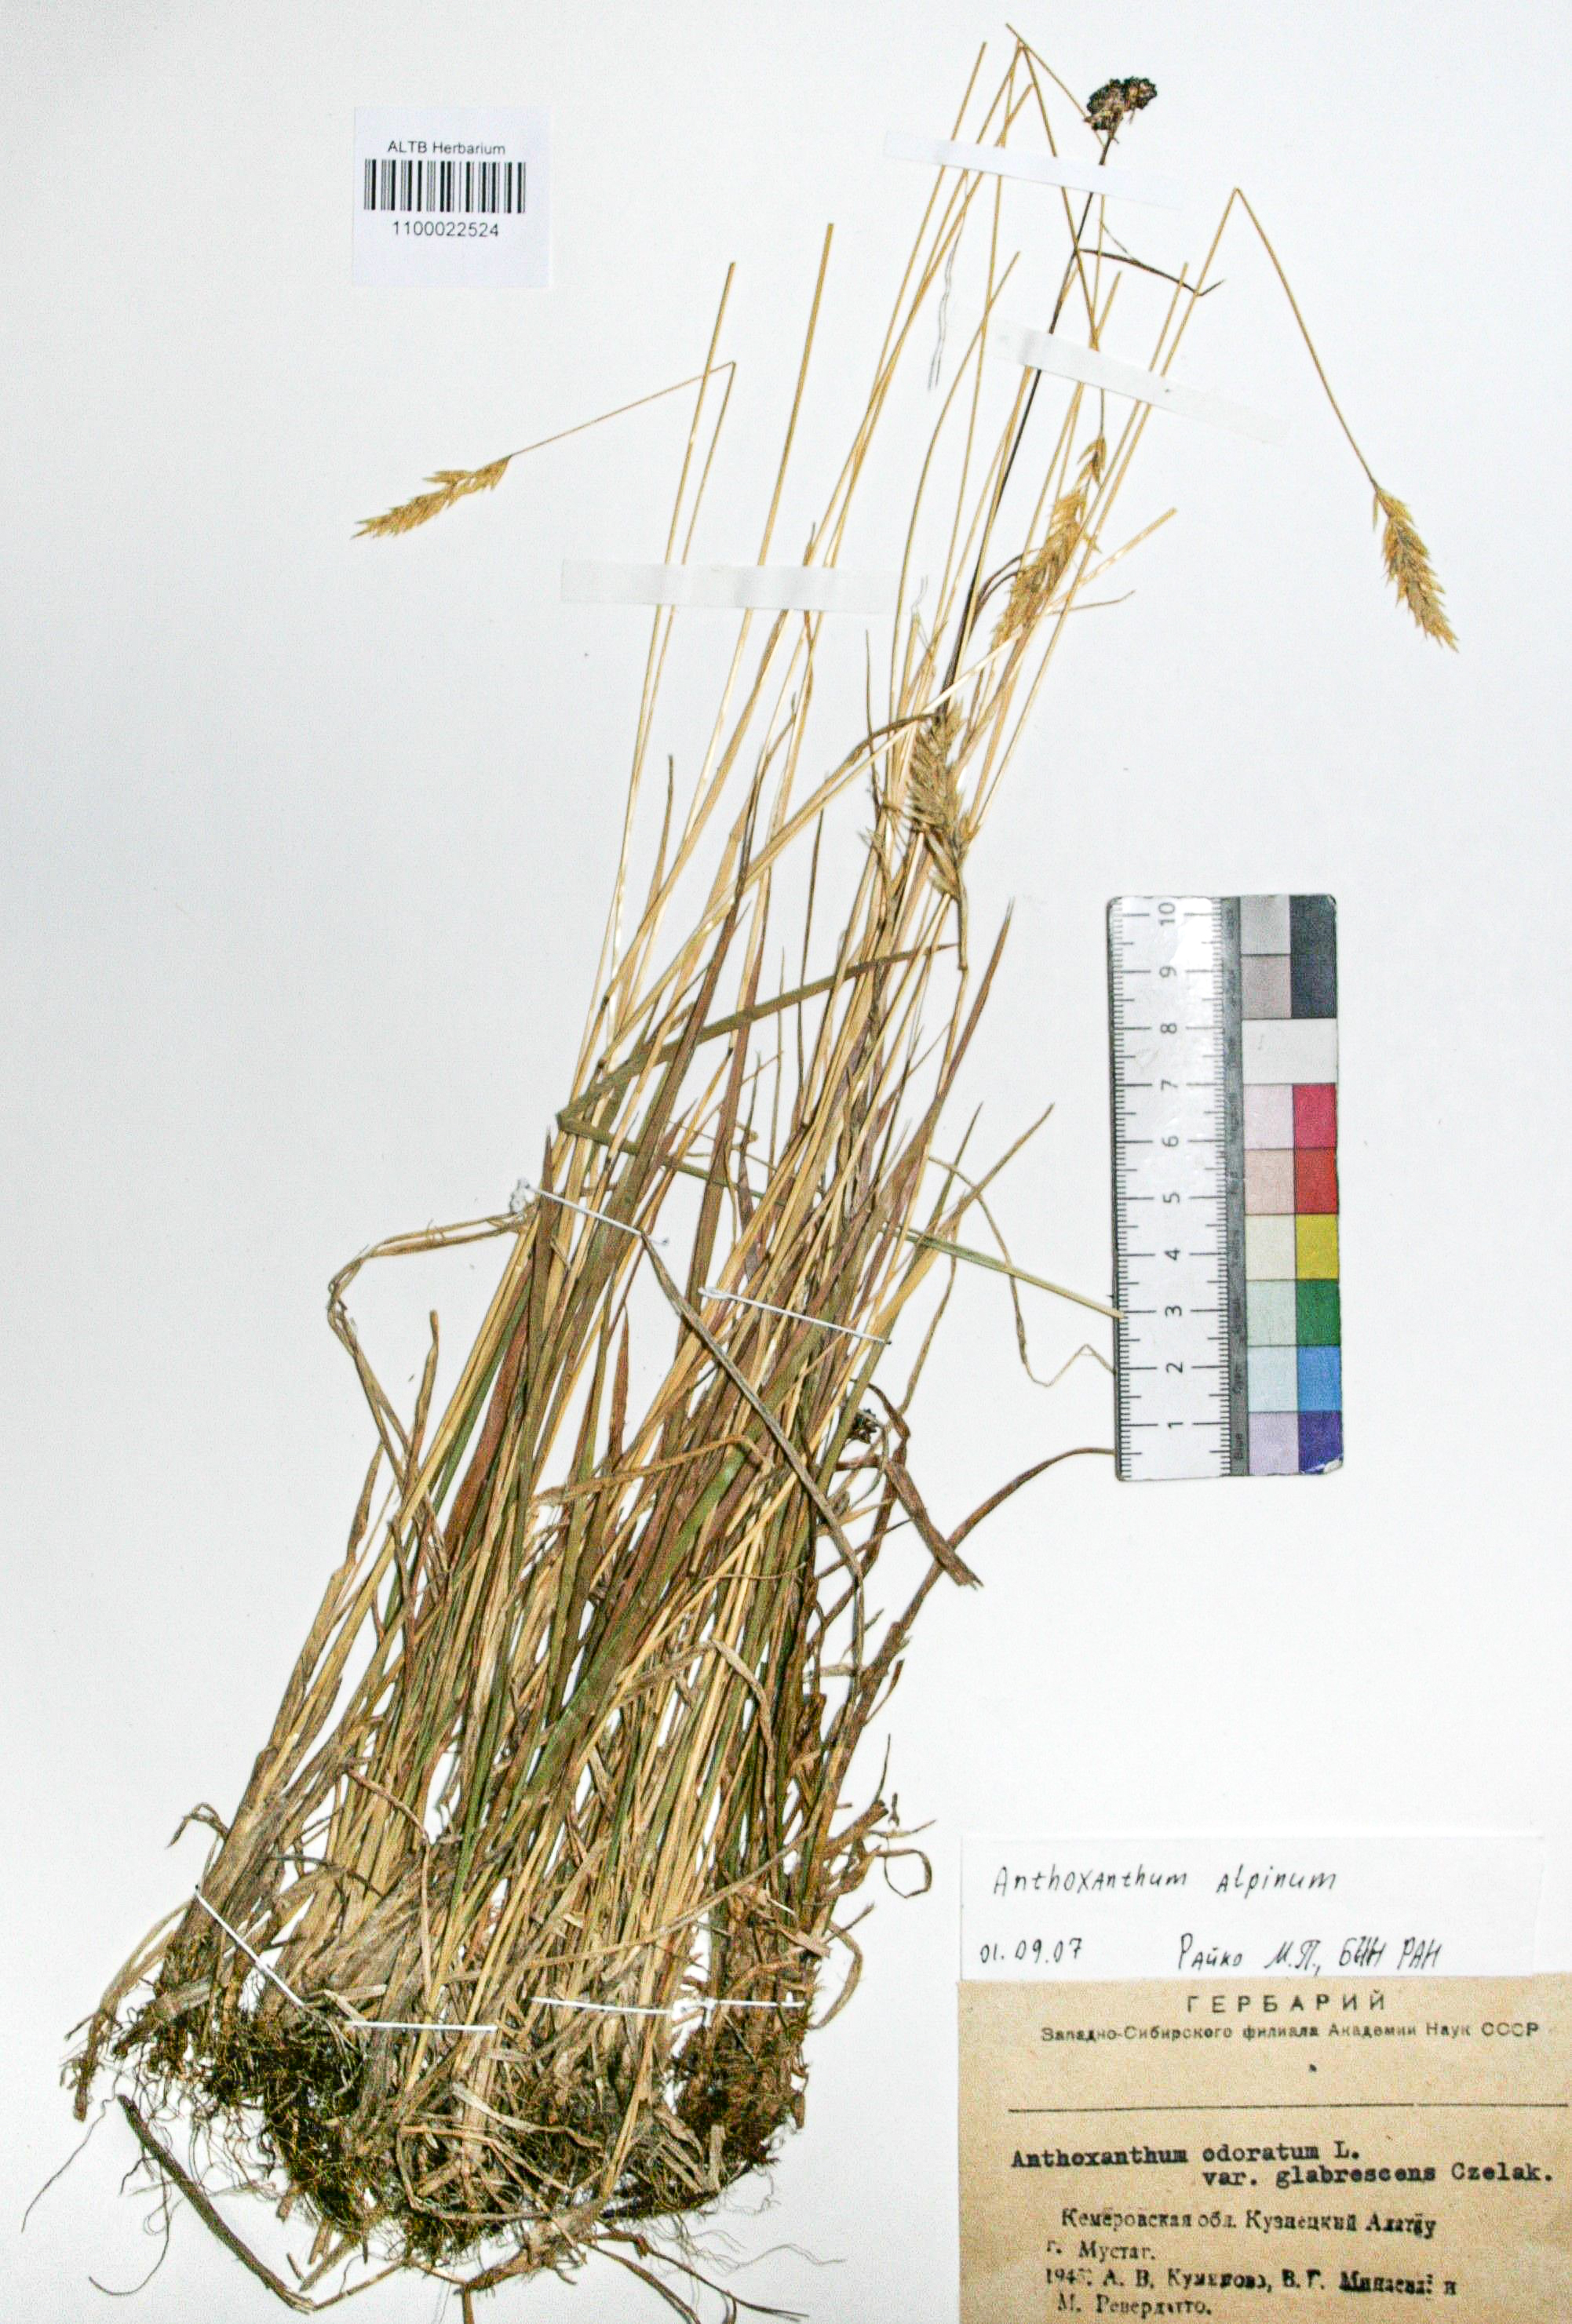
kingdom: Plantae
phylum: Tracheophyta
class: Liliopsida
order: Poales
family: Poaceae
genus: Anthoxanthum
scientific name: Anthoxanthum nipponicum
